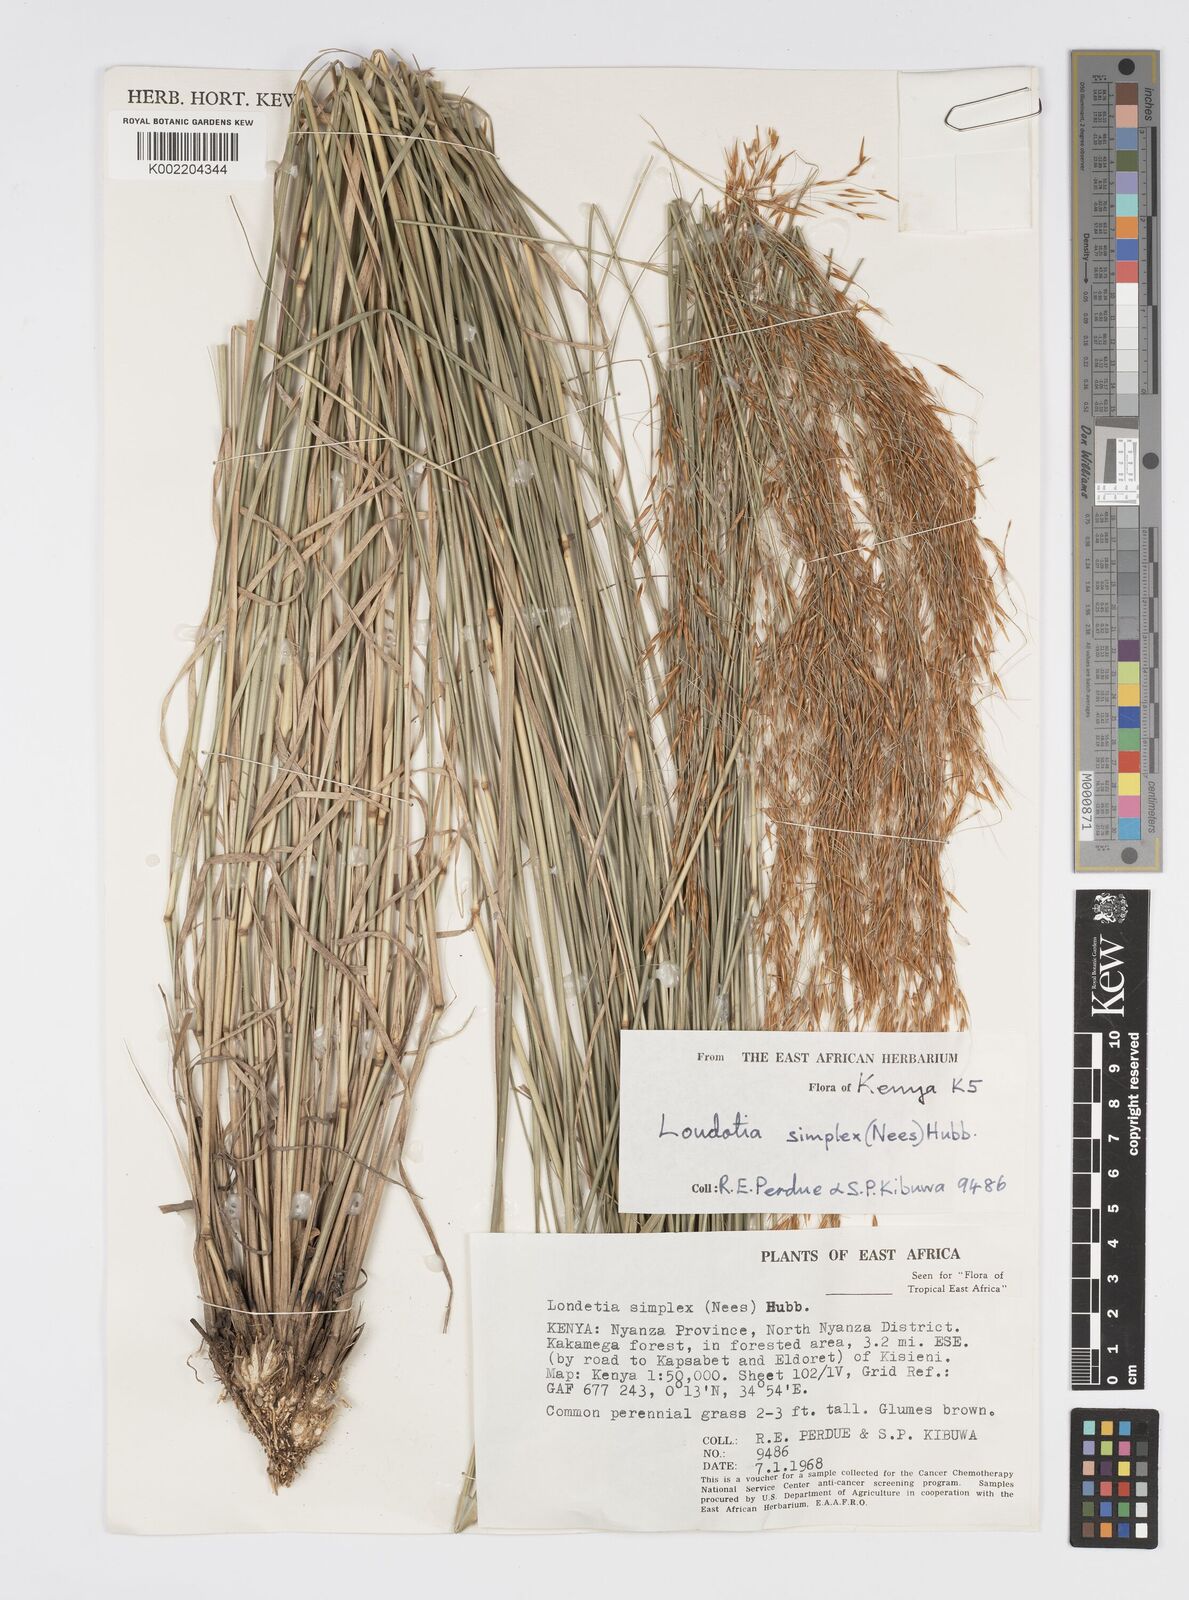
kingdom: Plantae
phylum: Tracheophyta
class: Liliopsida
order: Poales
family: Poaceae
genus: Loudetia
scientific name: Loudetia simplex
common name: Common russet grass
